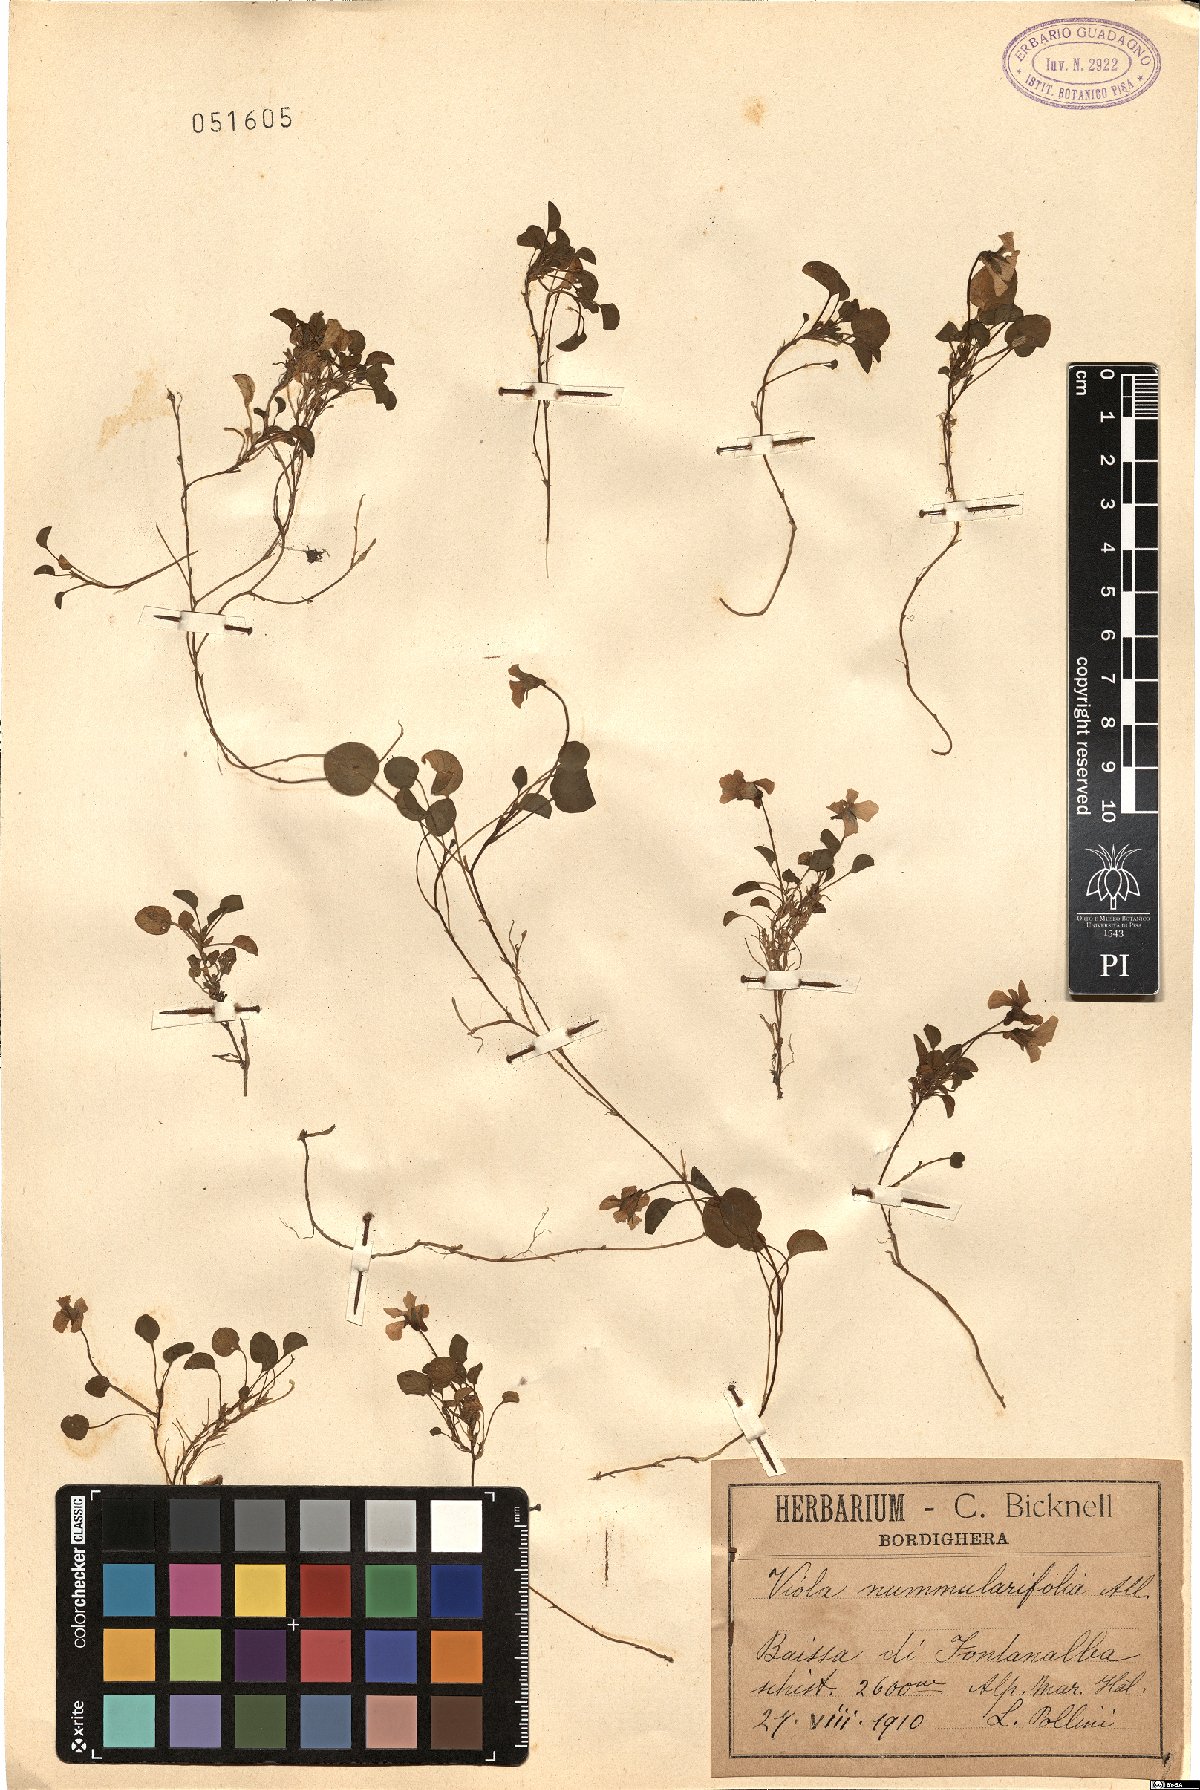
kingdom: Plantae
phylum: Tracheophyta
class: Magnoliopsida
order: Malpighiales
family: Violaceae
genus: Viola
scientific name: Viola nummulariifolia
